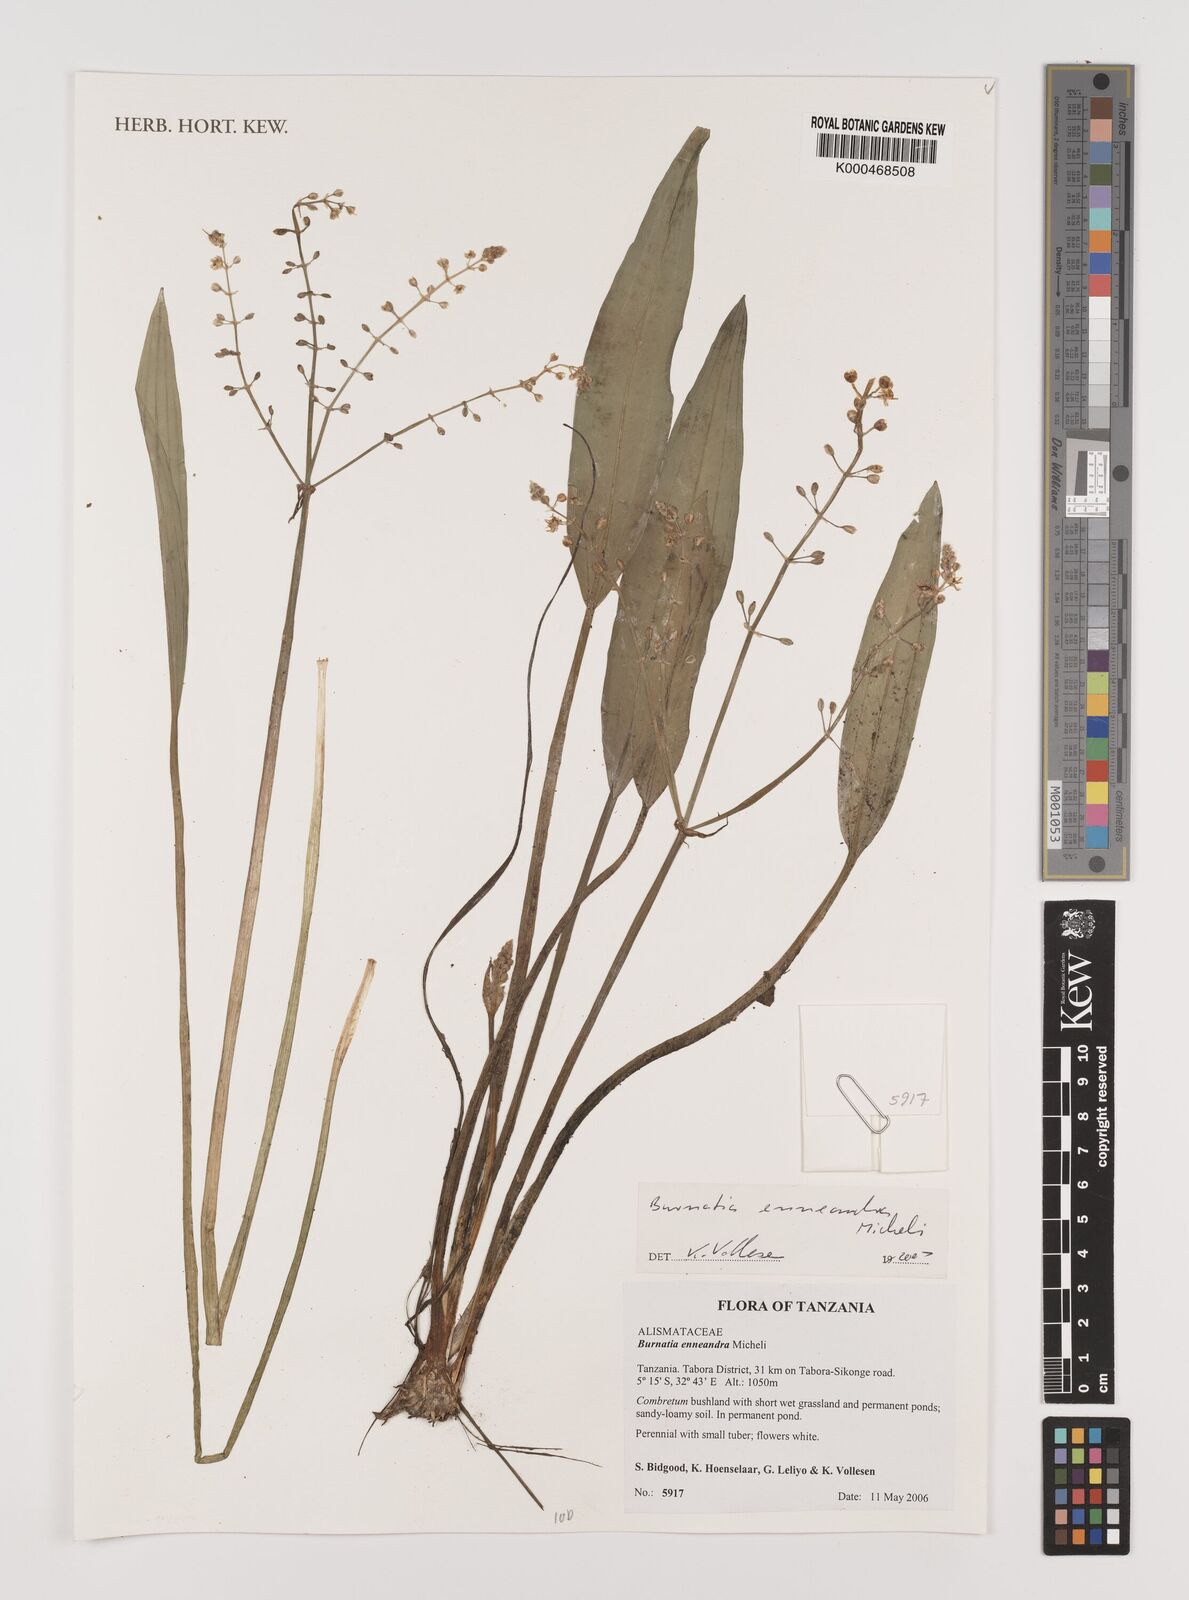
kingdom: Plantae
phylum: Tracheophyta
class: Liliopsida
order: Alismatales
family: Alismataceae
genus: Burnatia
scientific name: Burnatia enneandra
